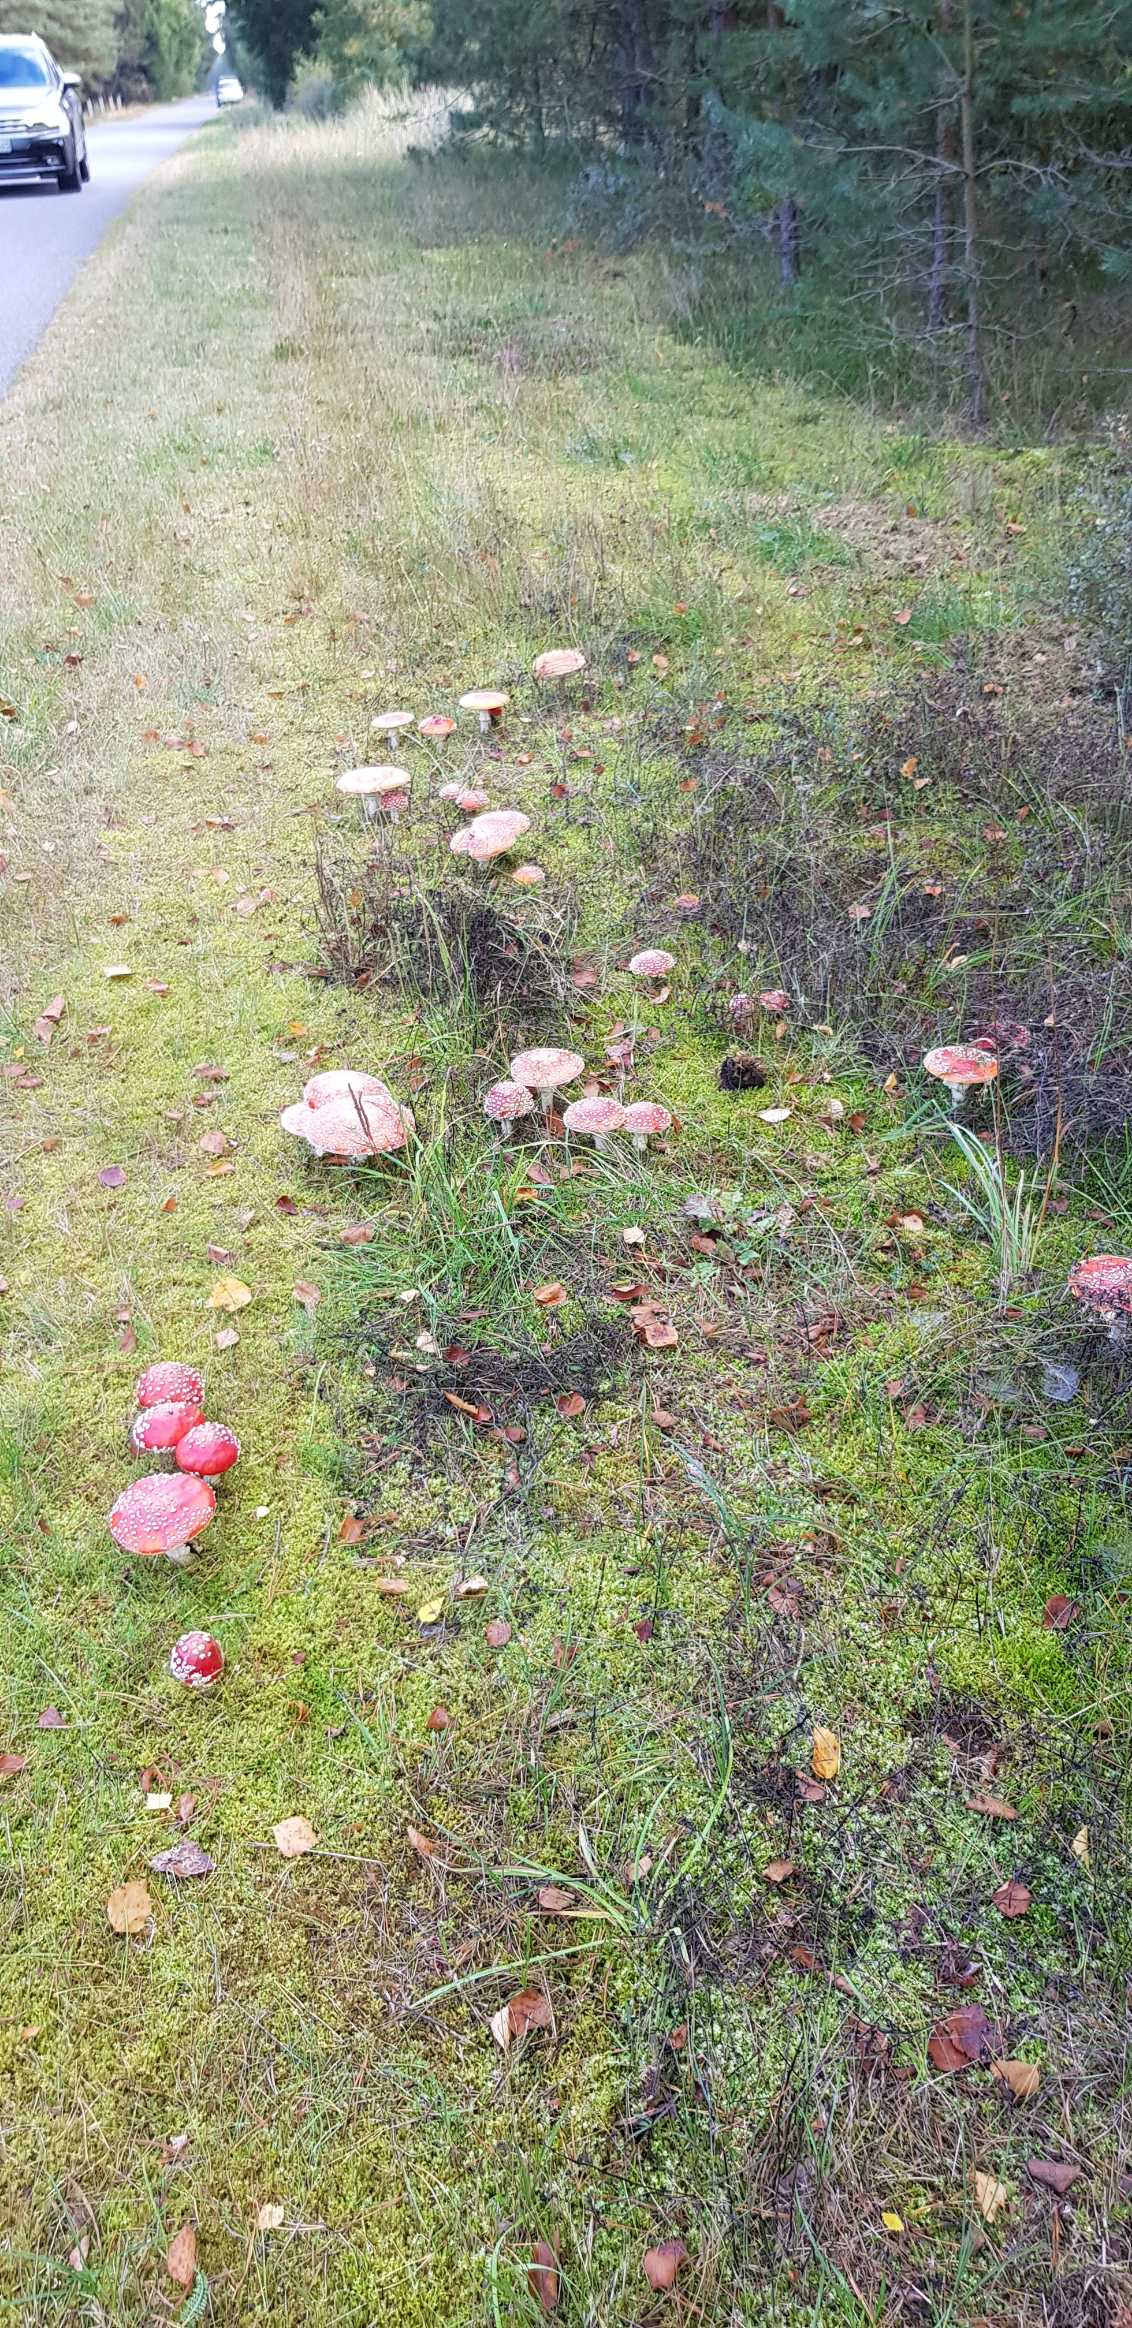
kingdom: Fungi
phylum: Basidiomycota
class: Agaricomycetes
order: Agaricales
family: Amanitaceae
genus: Amanita
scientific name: Amanita muscaria
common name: Rød fluesvamp
